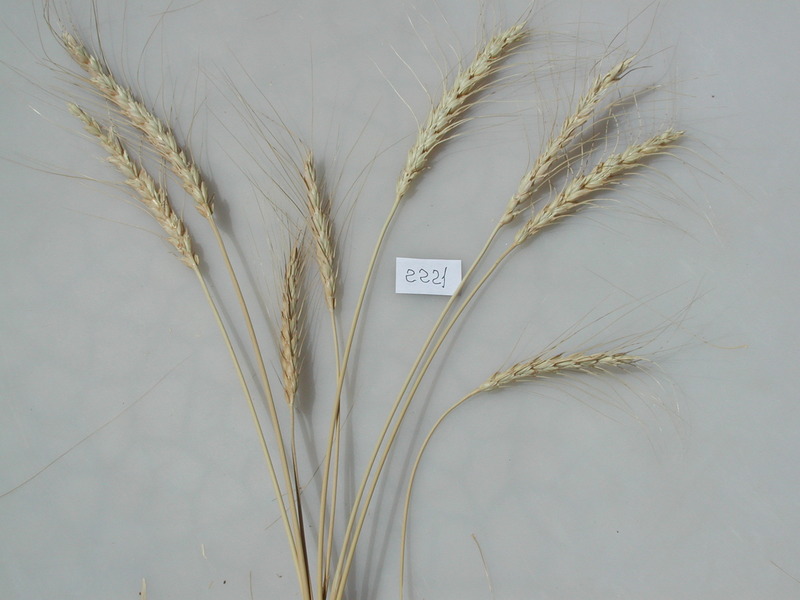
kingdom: Plantae
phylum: Tracheophyta
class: Liliopsida
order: Poales
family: Poaceae
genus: Triticum
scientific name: Triticum aestivum
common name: Wheat
